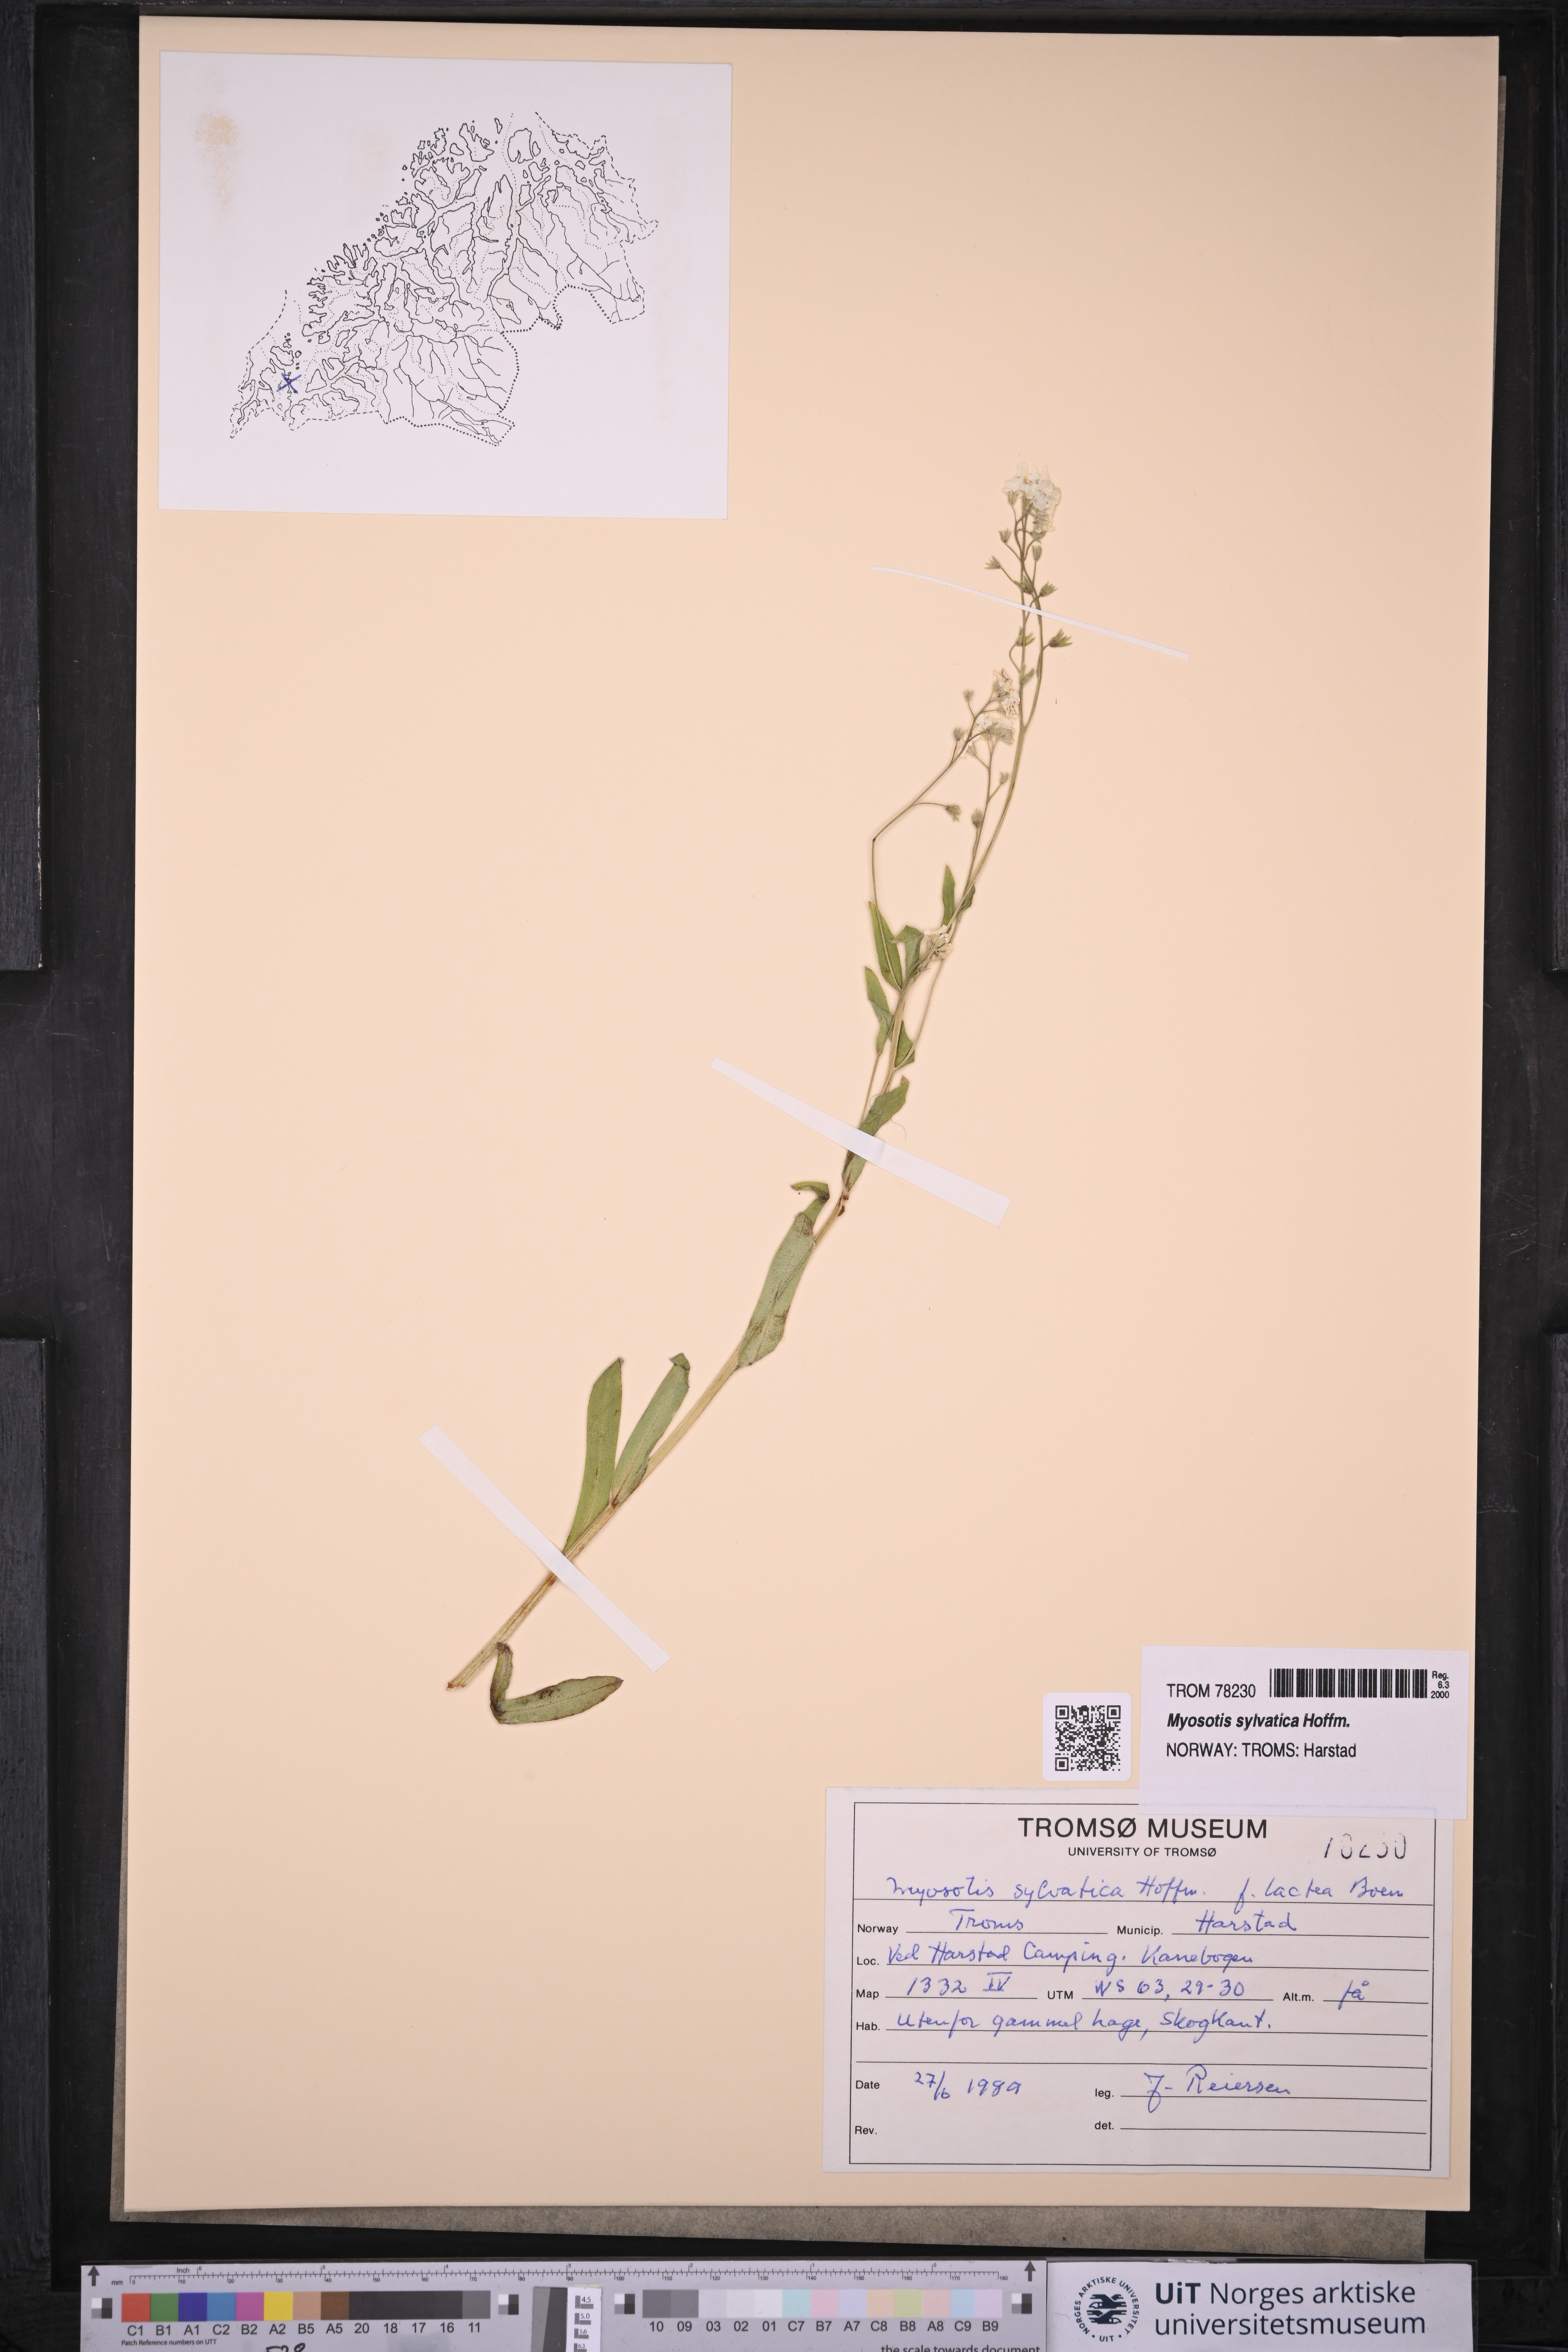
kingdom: Plantae
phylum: Tracheophyta
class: Magnoliopsida
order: Boraginales
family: Boraginaceae
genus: Myosotis
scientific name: Myosotis sylvatica
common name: Wood forget-me-not
